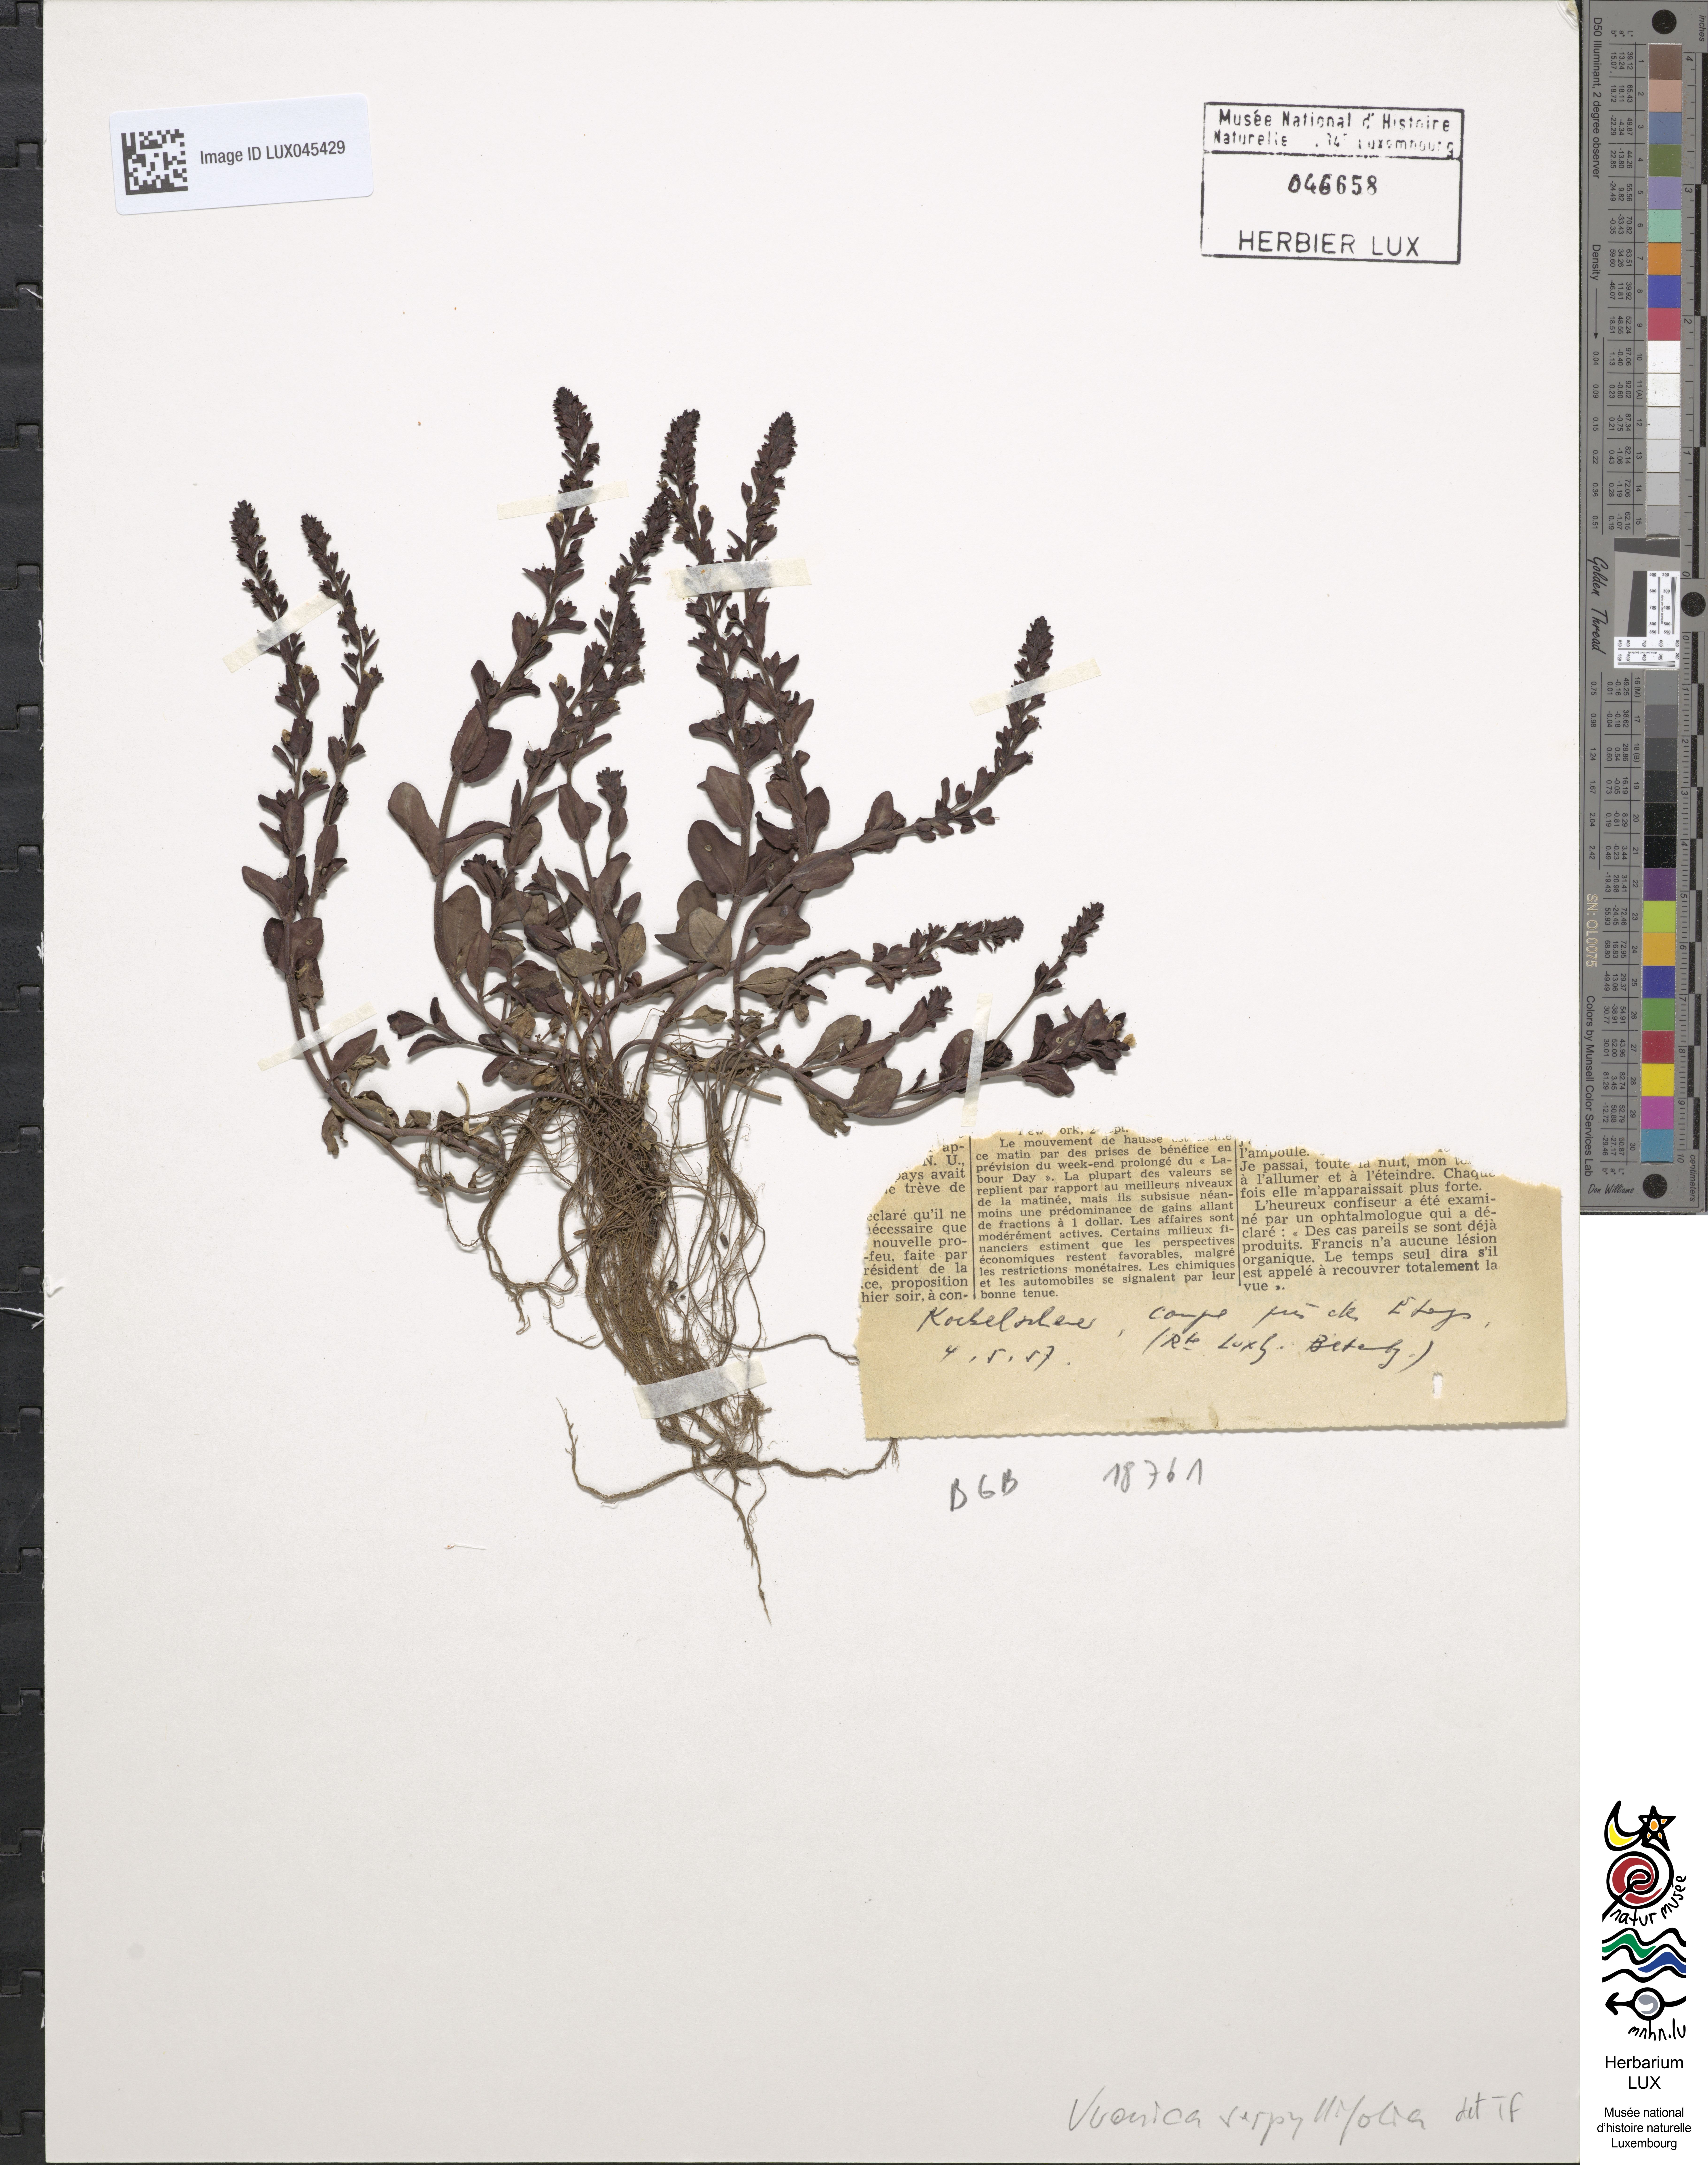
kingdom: Plantae
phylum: Tracheophyta
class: Magnoliopsida
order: Lamiales
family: Plantaginaceae
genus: Veronica
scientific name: Veronica serpyllifolia
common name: Thyme-leaved speedwell
